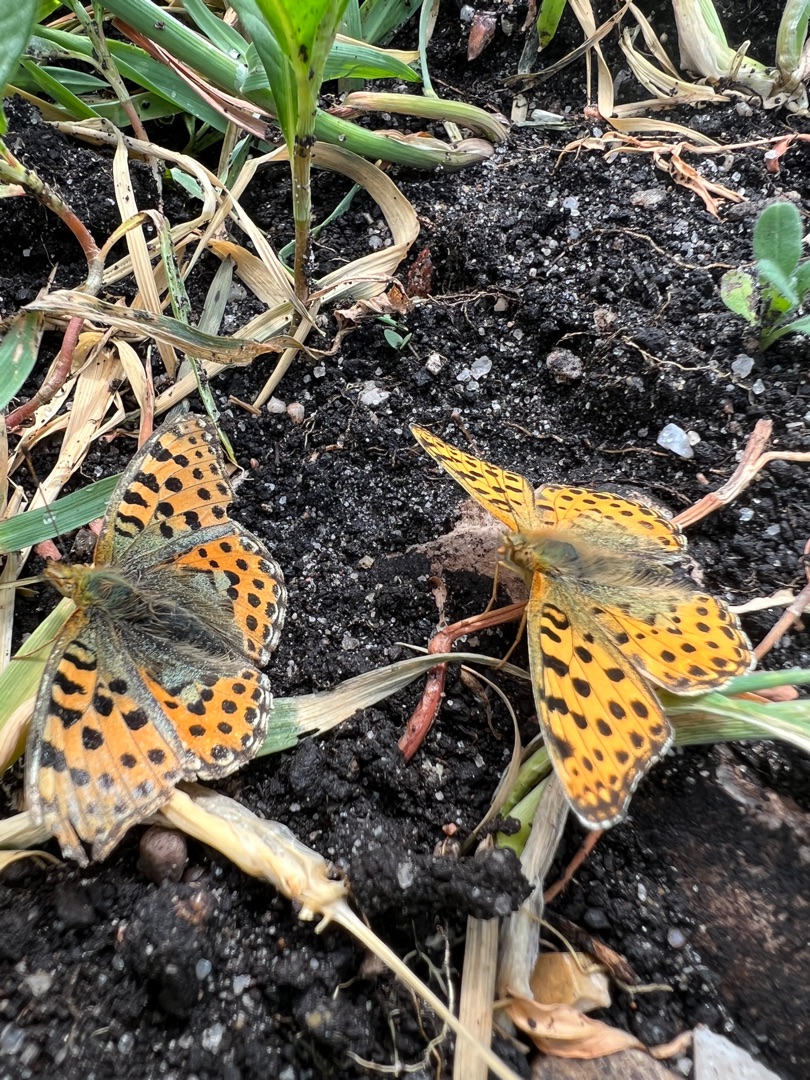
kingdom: Animalia
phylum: Arthropoda
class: Insecta
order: Lepidoptera
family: Nymphalidae
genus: Issoria
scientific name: Issoria lathonia
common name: Storplettet perlemorsommerfugl
